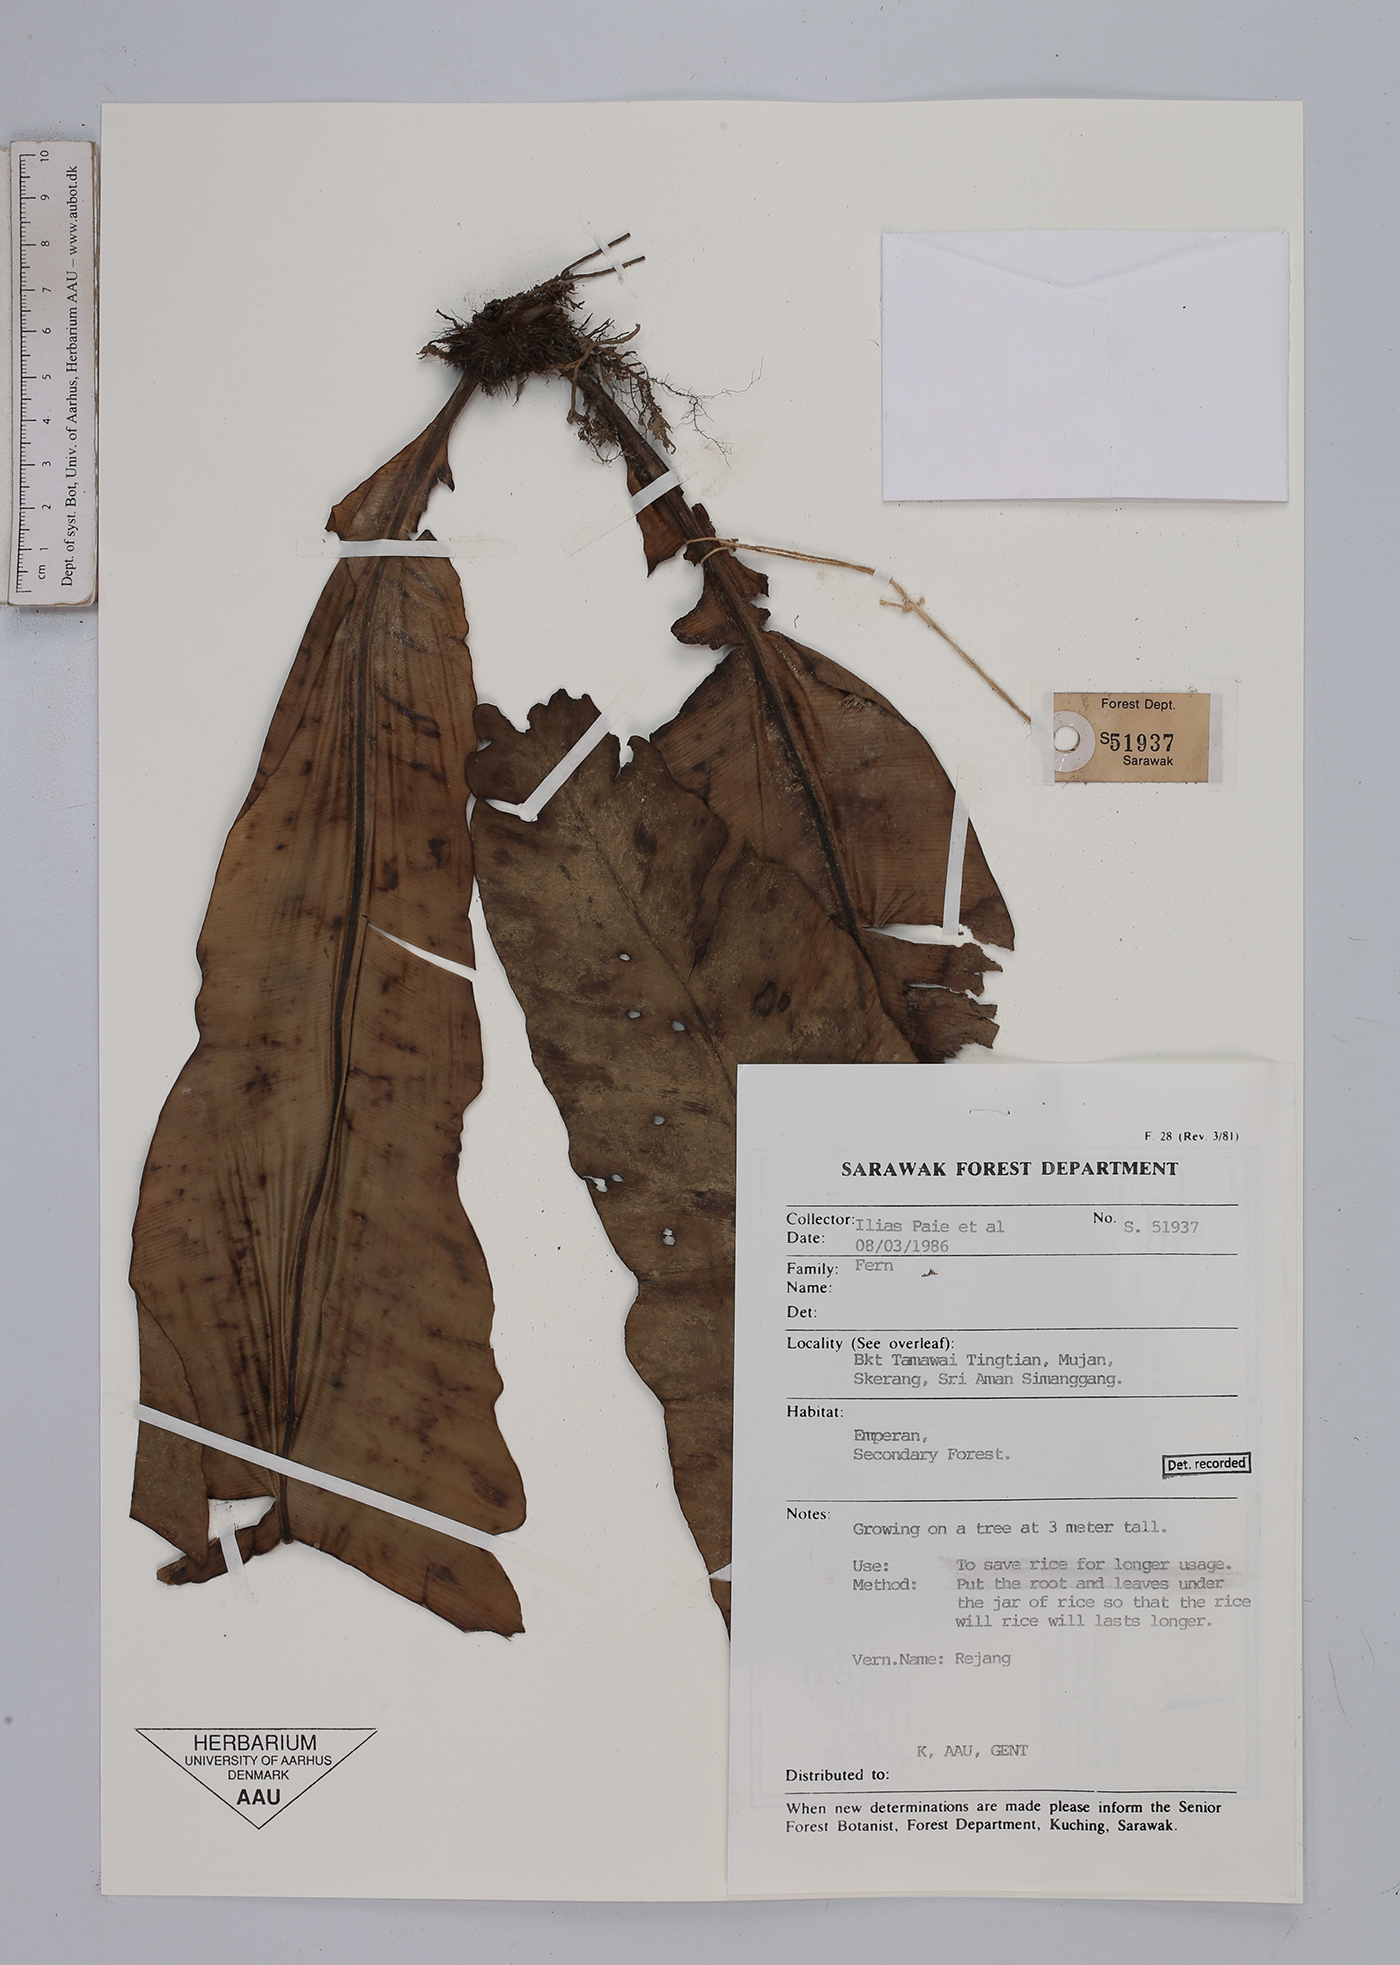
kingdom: Plantae
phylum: Tracheophyta
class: Polypodiopsida
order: Polypodiales
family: Aspleniaceae
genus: Asplenium
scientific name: Asplenium
